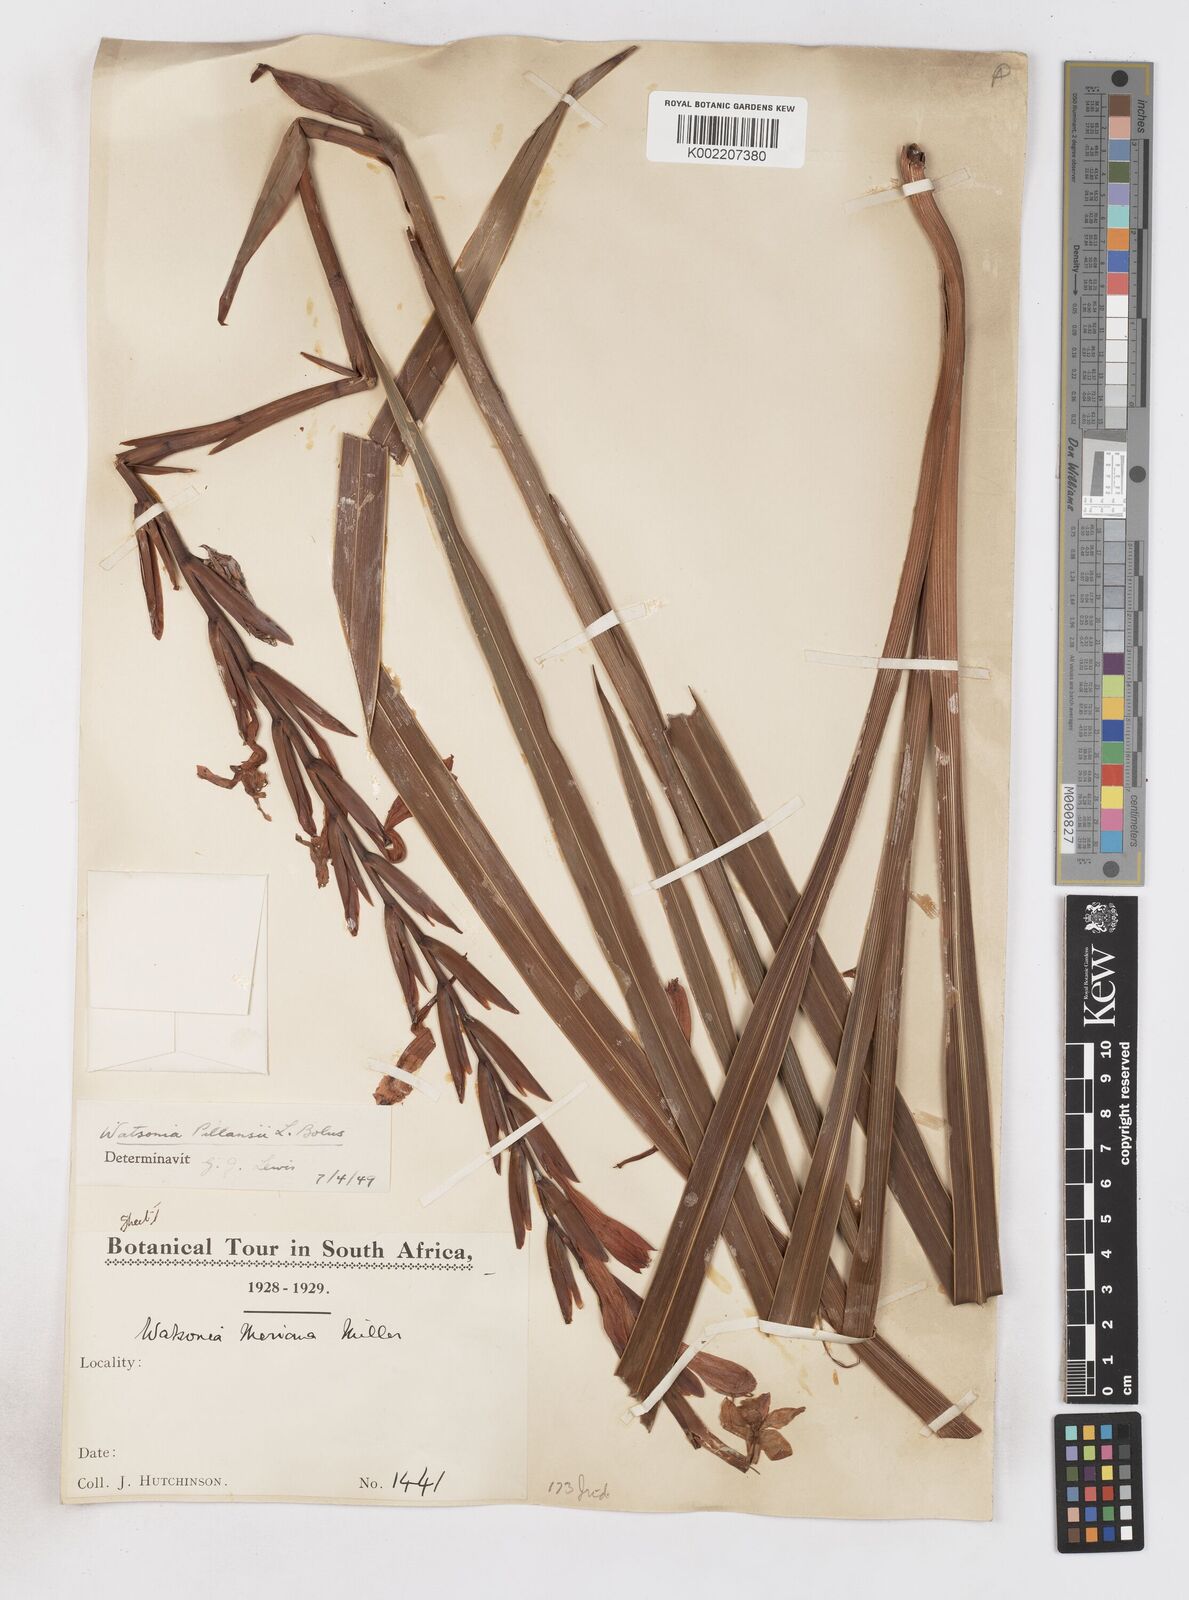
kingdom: Plantae
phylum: Tracheophyta
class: Liliopsida
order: Asparagales
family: Iridaceae
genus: Watsonia
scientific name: Watsonia pillansii
